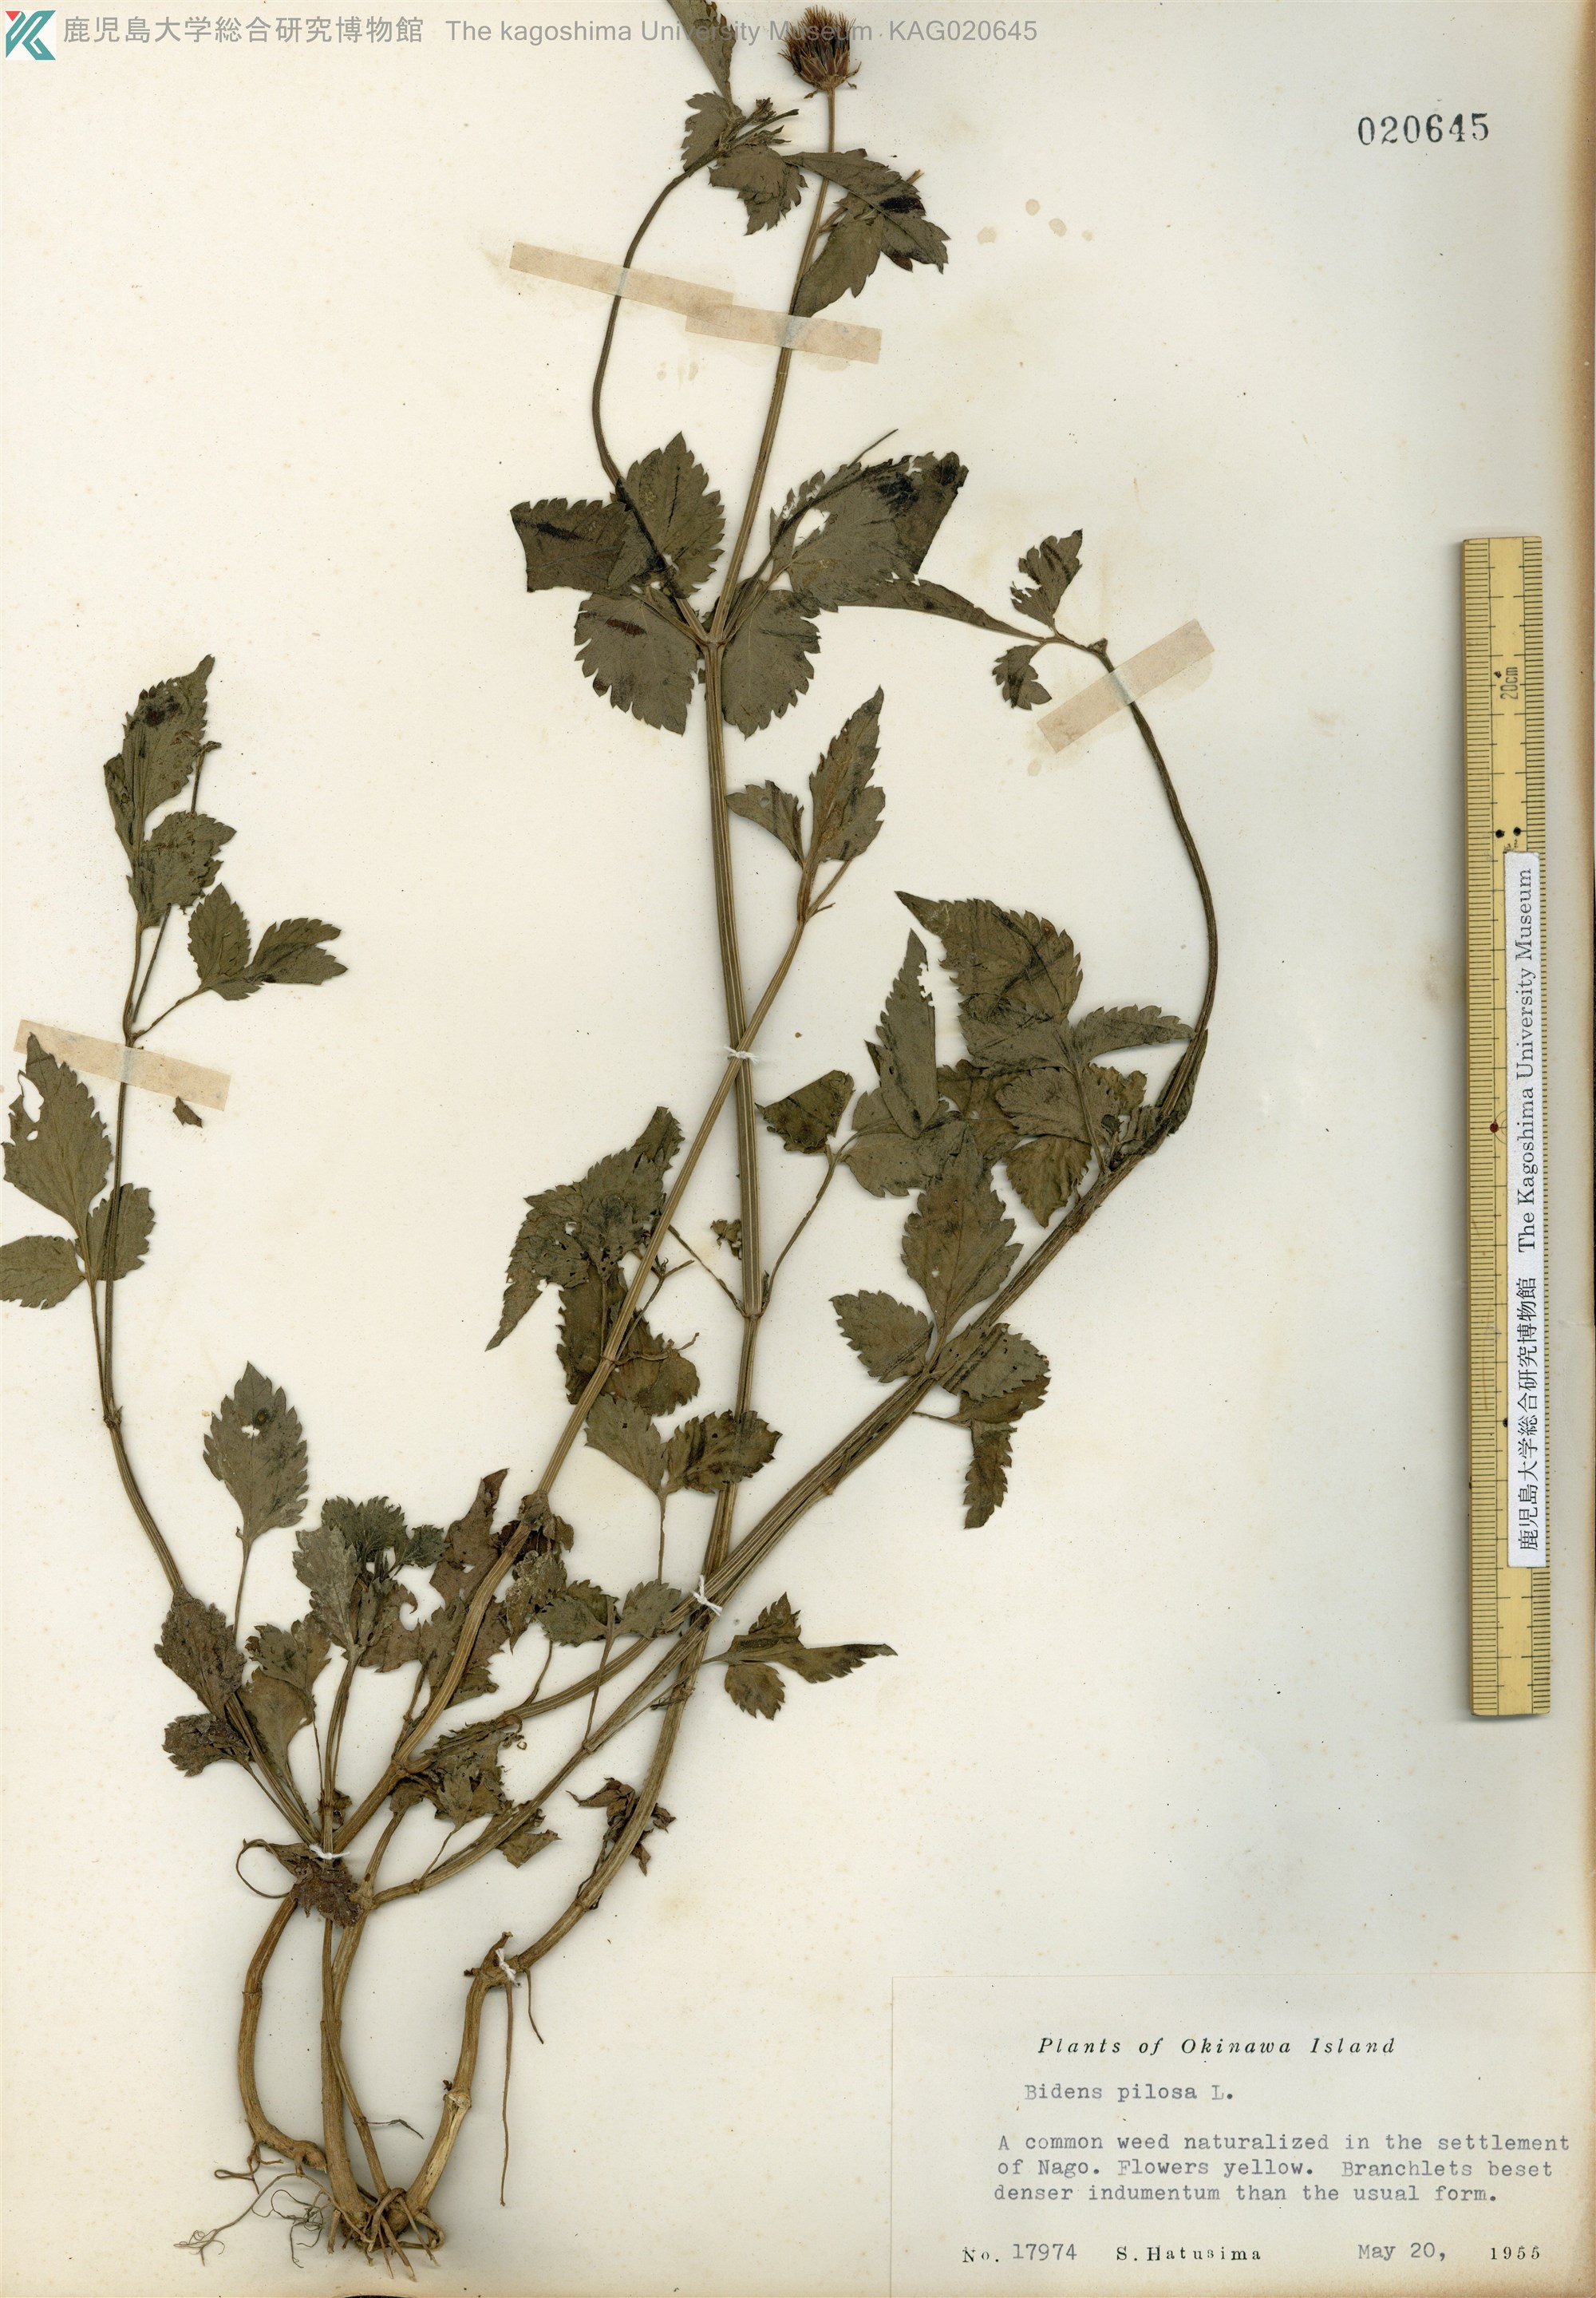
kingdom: Plantae
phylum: Tracheophyta
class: Magnoliopsida
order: Asterales
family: Asteraceae
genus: Bidens
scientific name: Bidens pilosa
